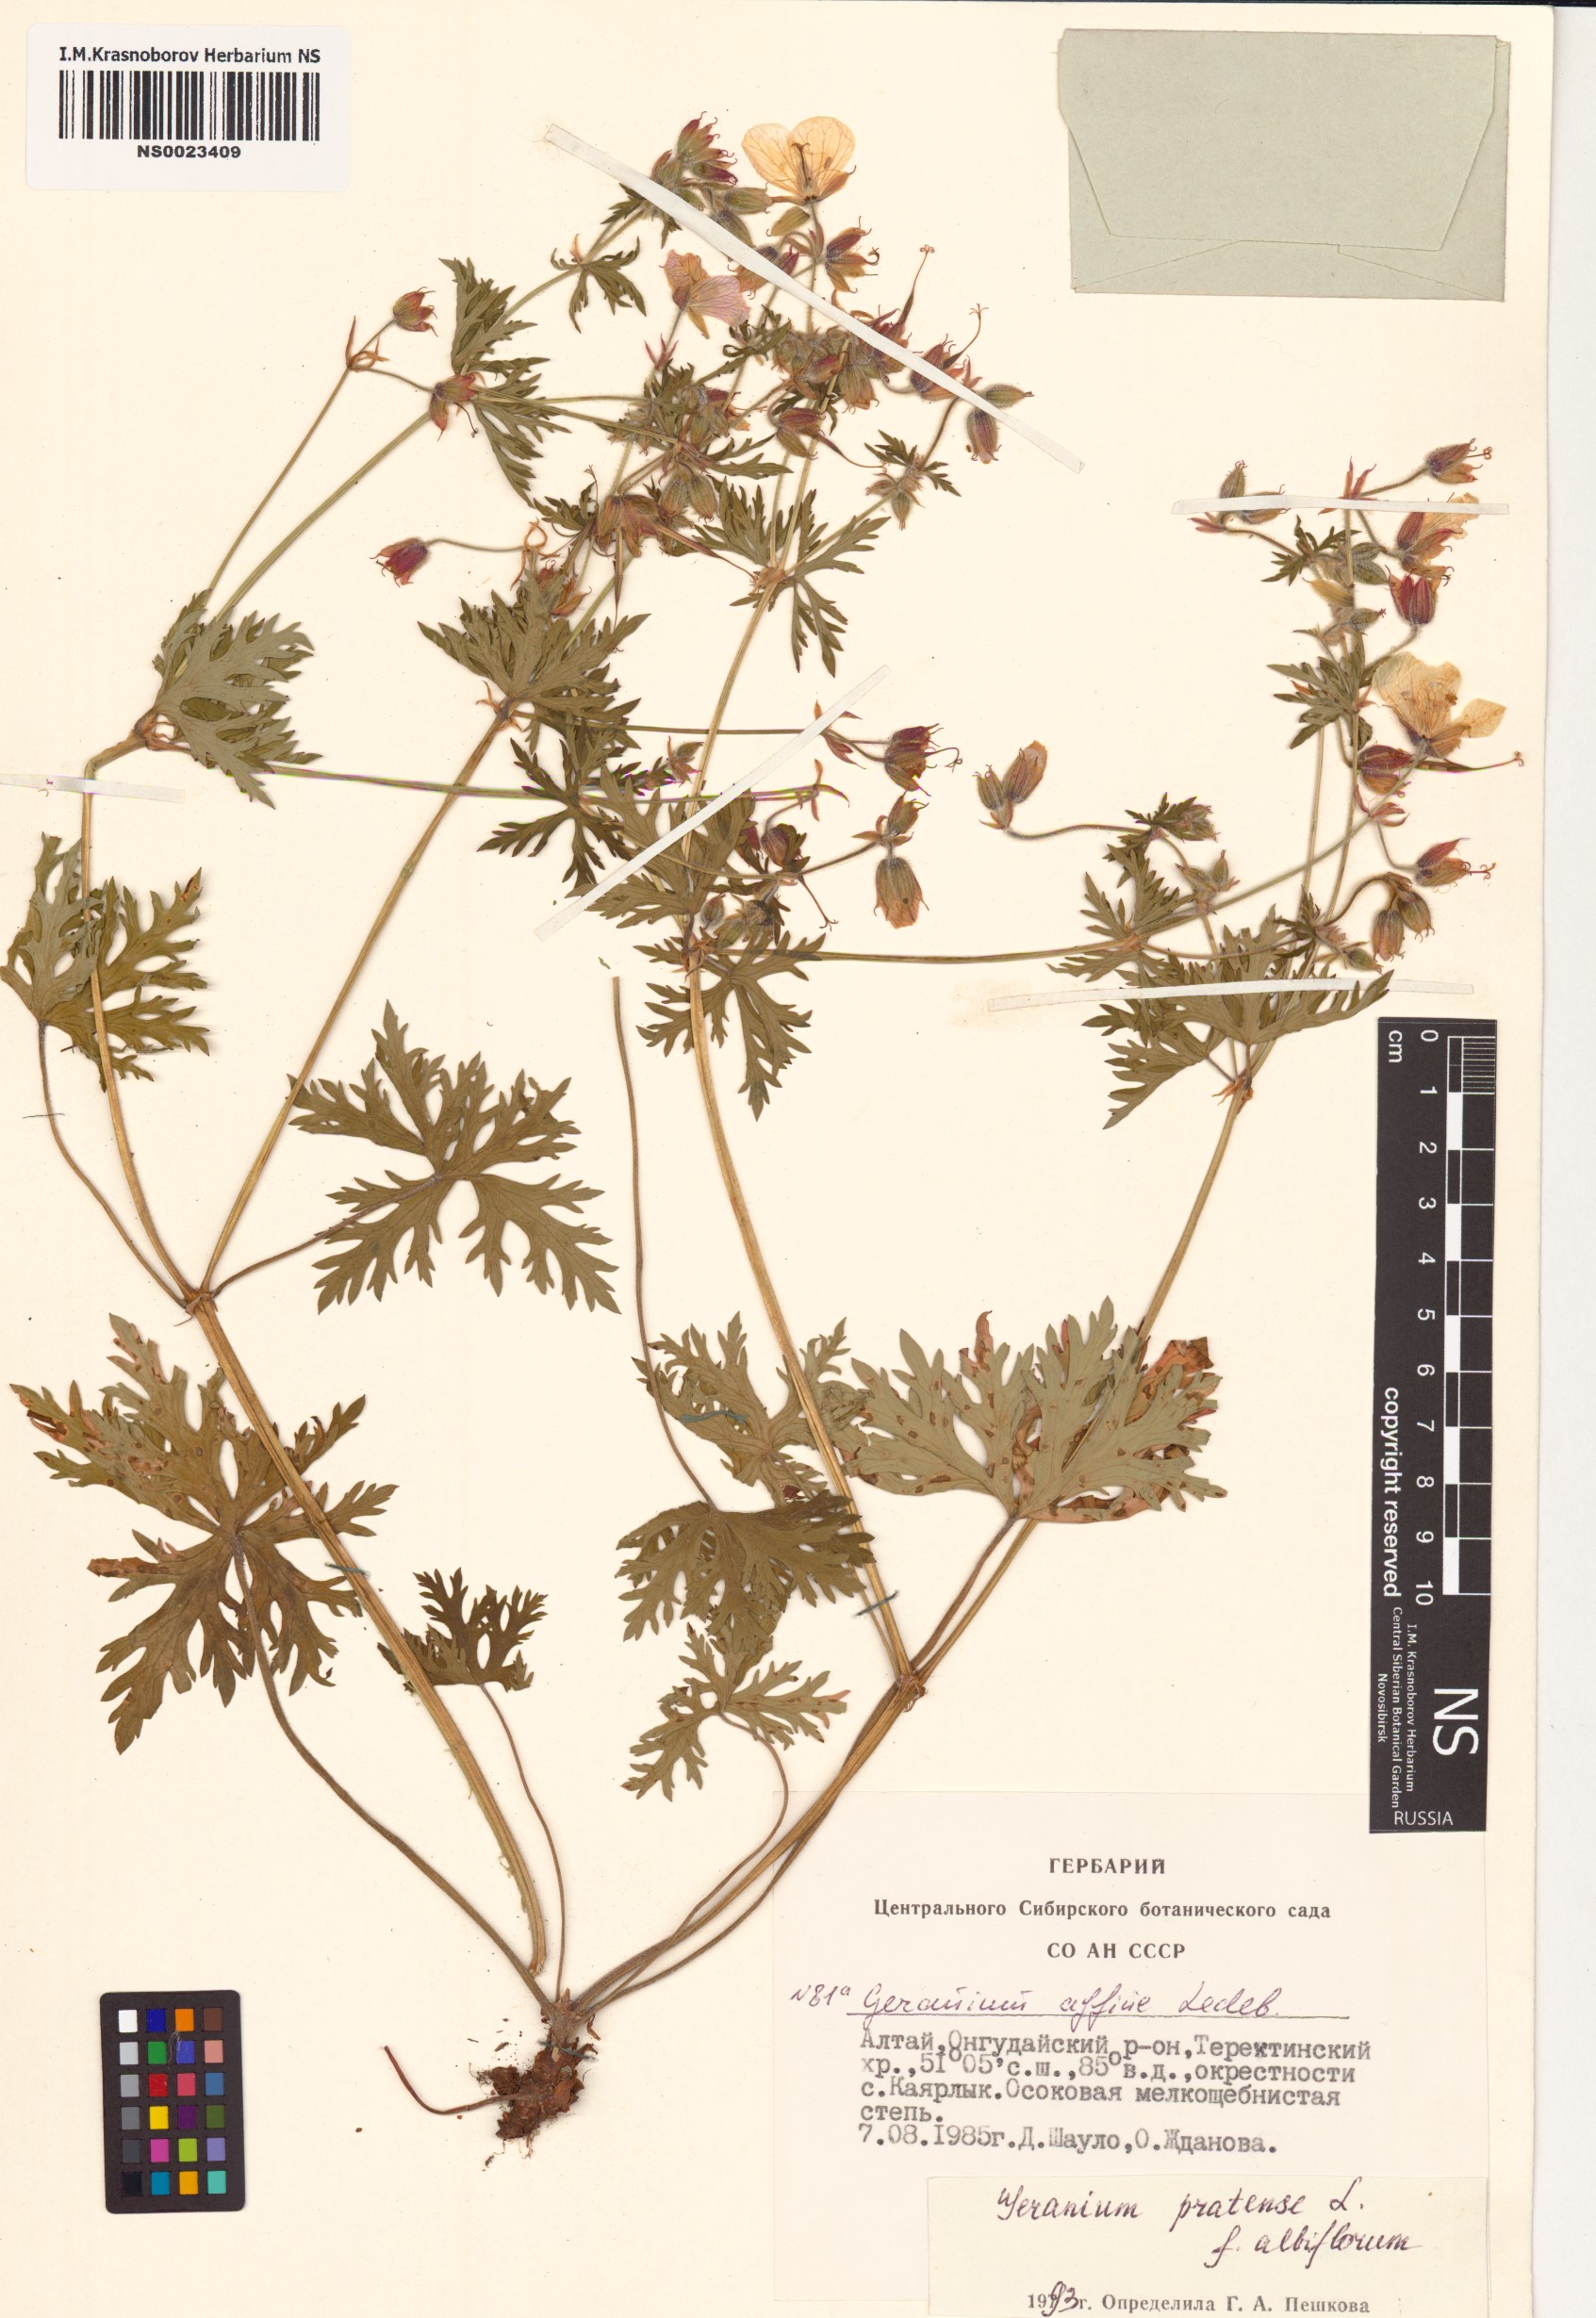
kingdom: Plantae
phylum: Tracheophyta
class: Magnoliopsida
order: Geraniales
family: Geraniaceae
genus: Geranium
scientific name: Geranium pratense
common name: Meadow crane's-bill
